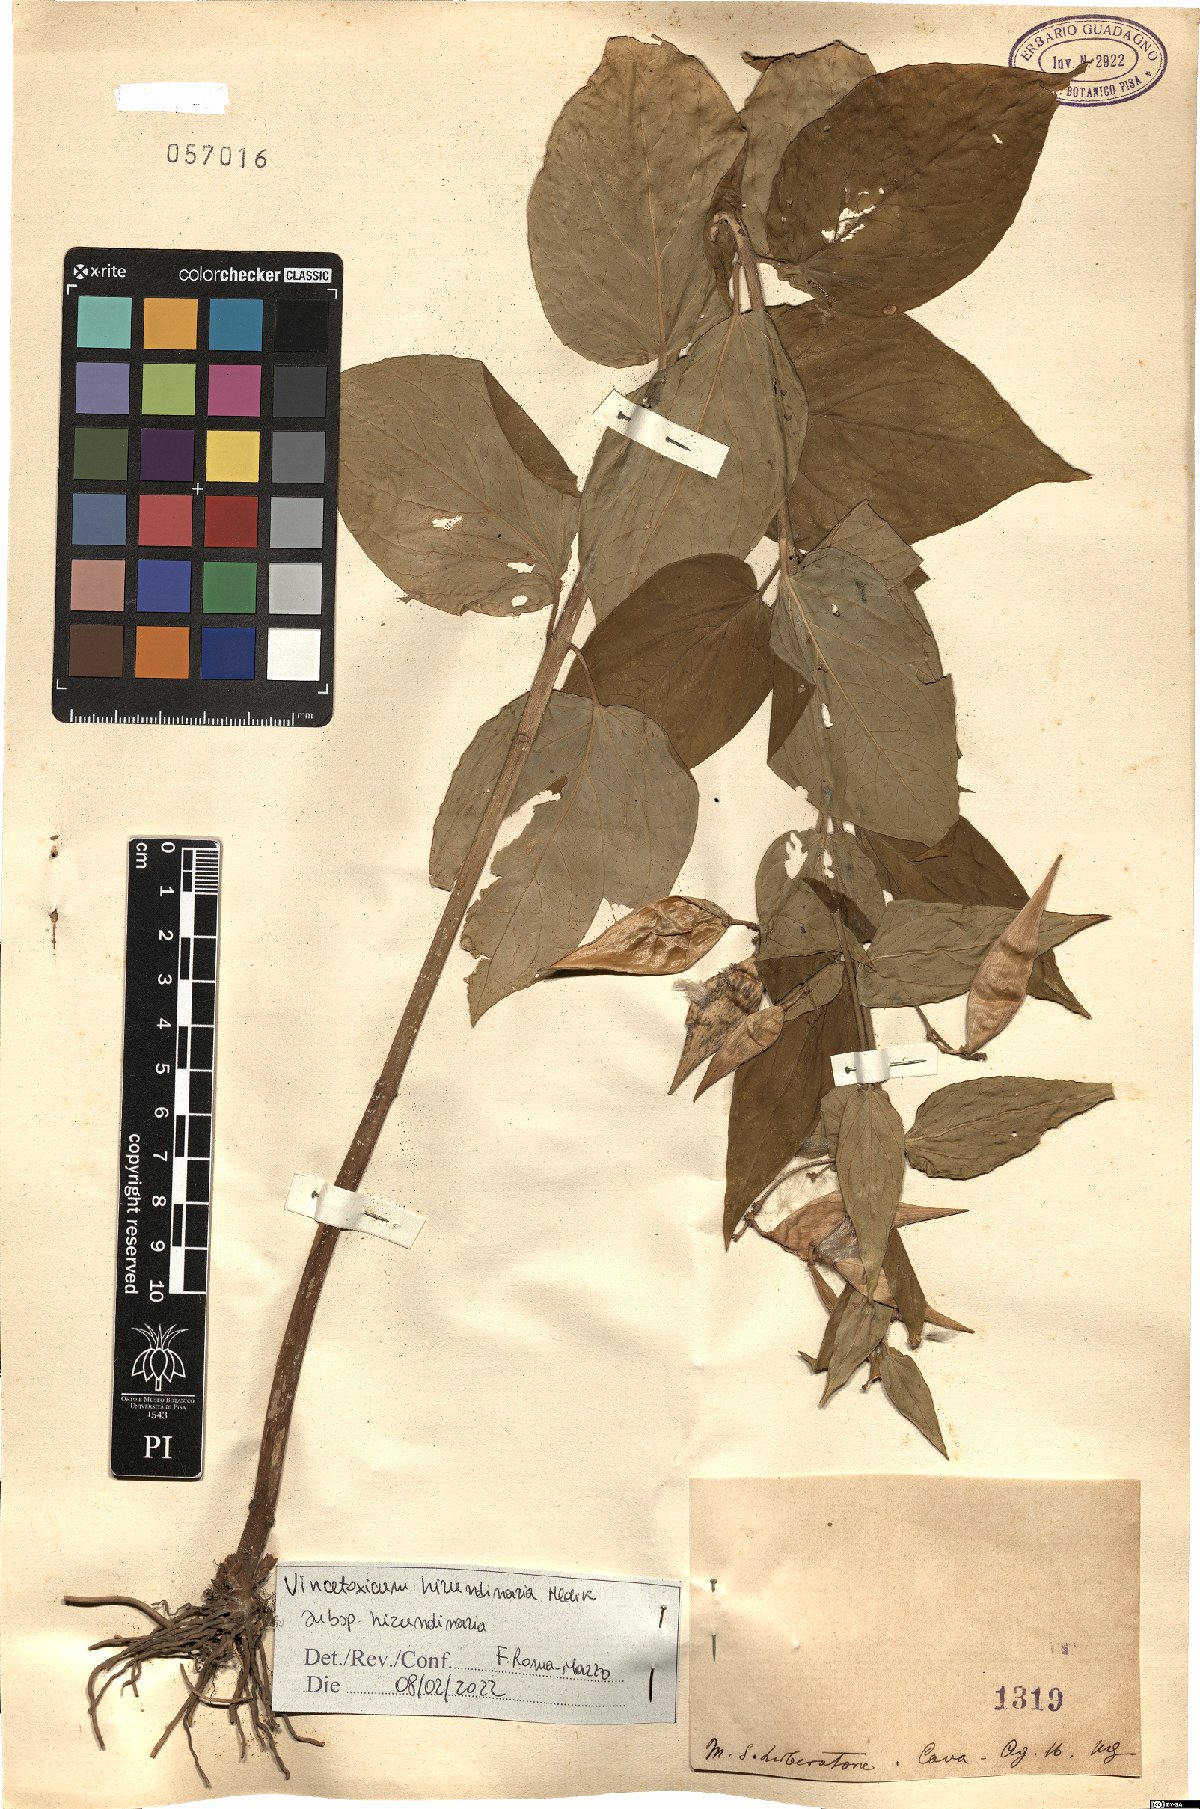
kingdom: Plantae
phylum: Tracheophyta
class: Magnoliopsida
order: Gentianales
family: Apocynaceae
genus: Vincetoxicum
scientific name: Vincetoxicum hirundinaria
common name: White swallowwort
